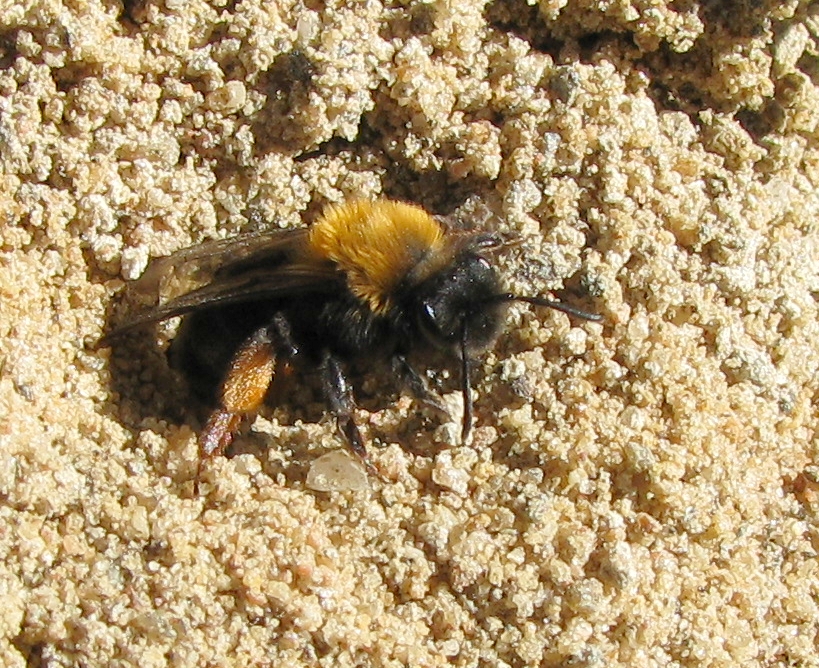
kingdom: Animalia
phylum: Arthropoda
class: Insecta
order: Hymenoptera
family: Andrenidae
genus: Andrena
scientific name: Andrena clarkella
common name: Clarke's mining bee
